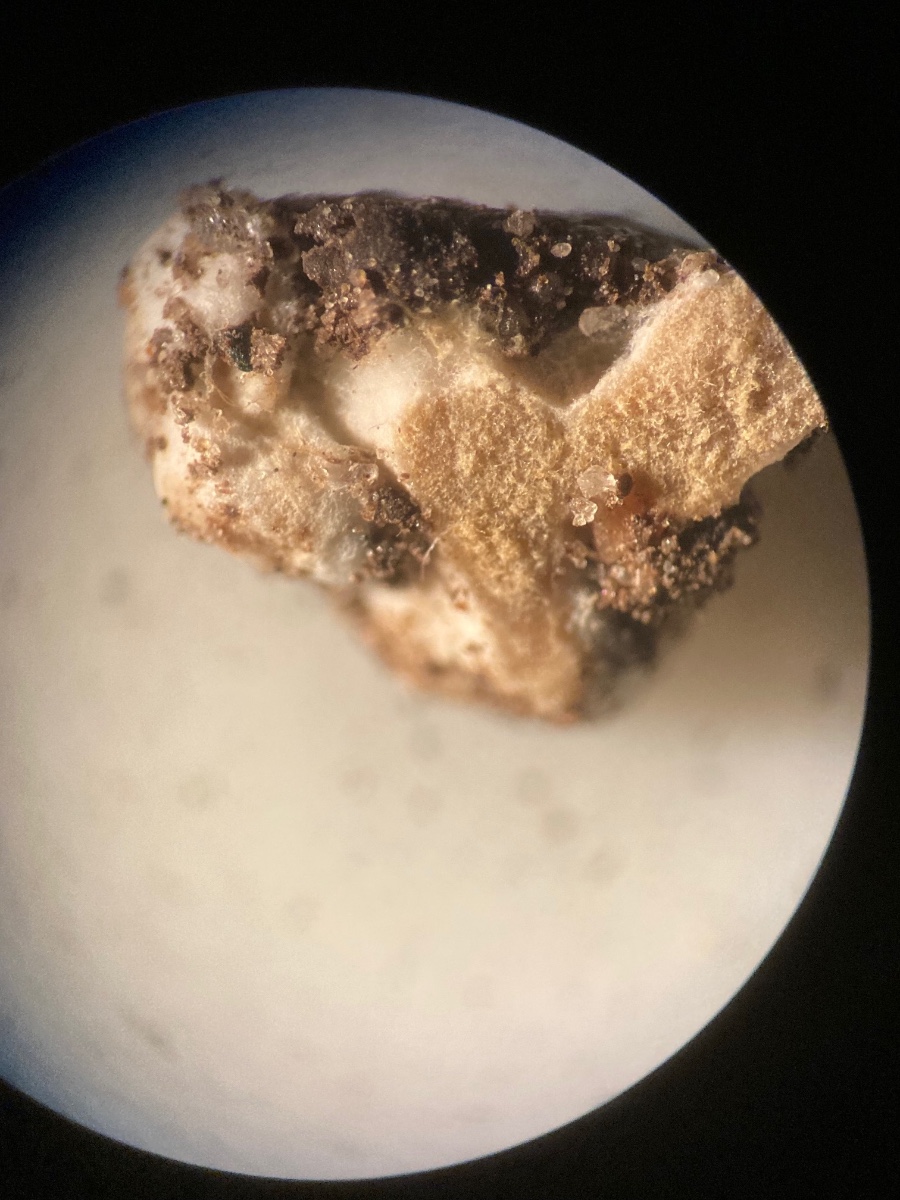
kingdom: Fungi
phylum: Glomeromycota
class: Glomeromycetes
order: Glomerales
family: Glomeraceae
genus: Glomus
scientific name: Glomus microcarpum
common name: Small-spored pea truffle
